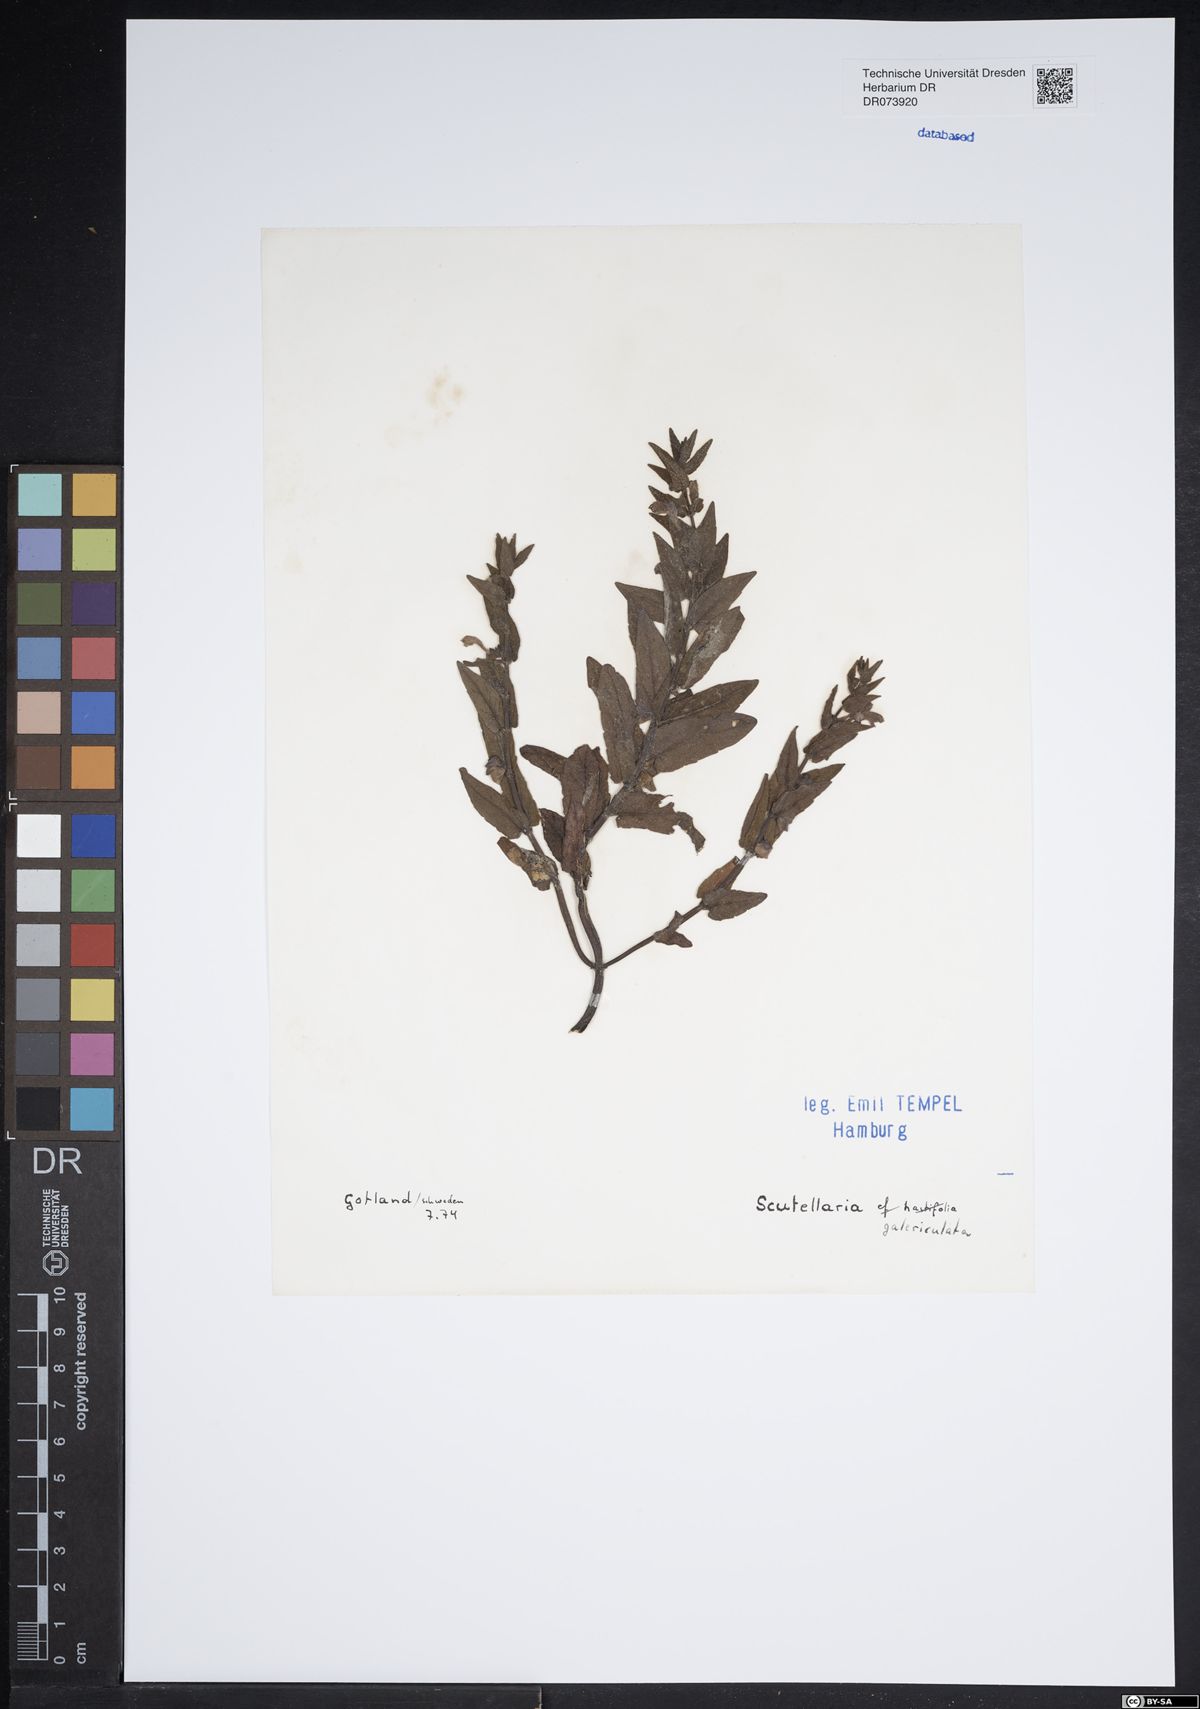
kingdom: Plantae
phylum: Tracheophyta
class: Magnoliopsida
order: Lamiales
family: Lamiaceae
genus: Scutellaria
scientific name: Scutellaria galericulata
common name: Skullcap
